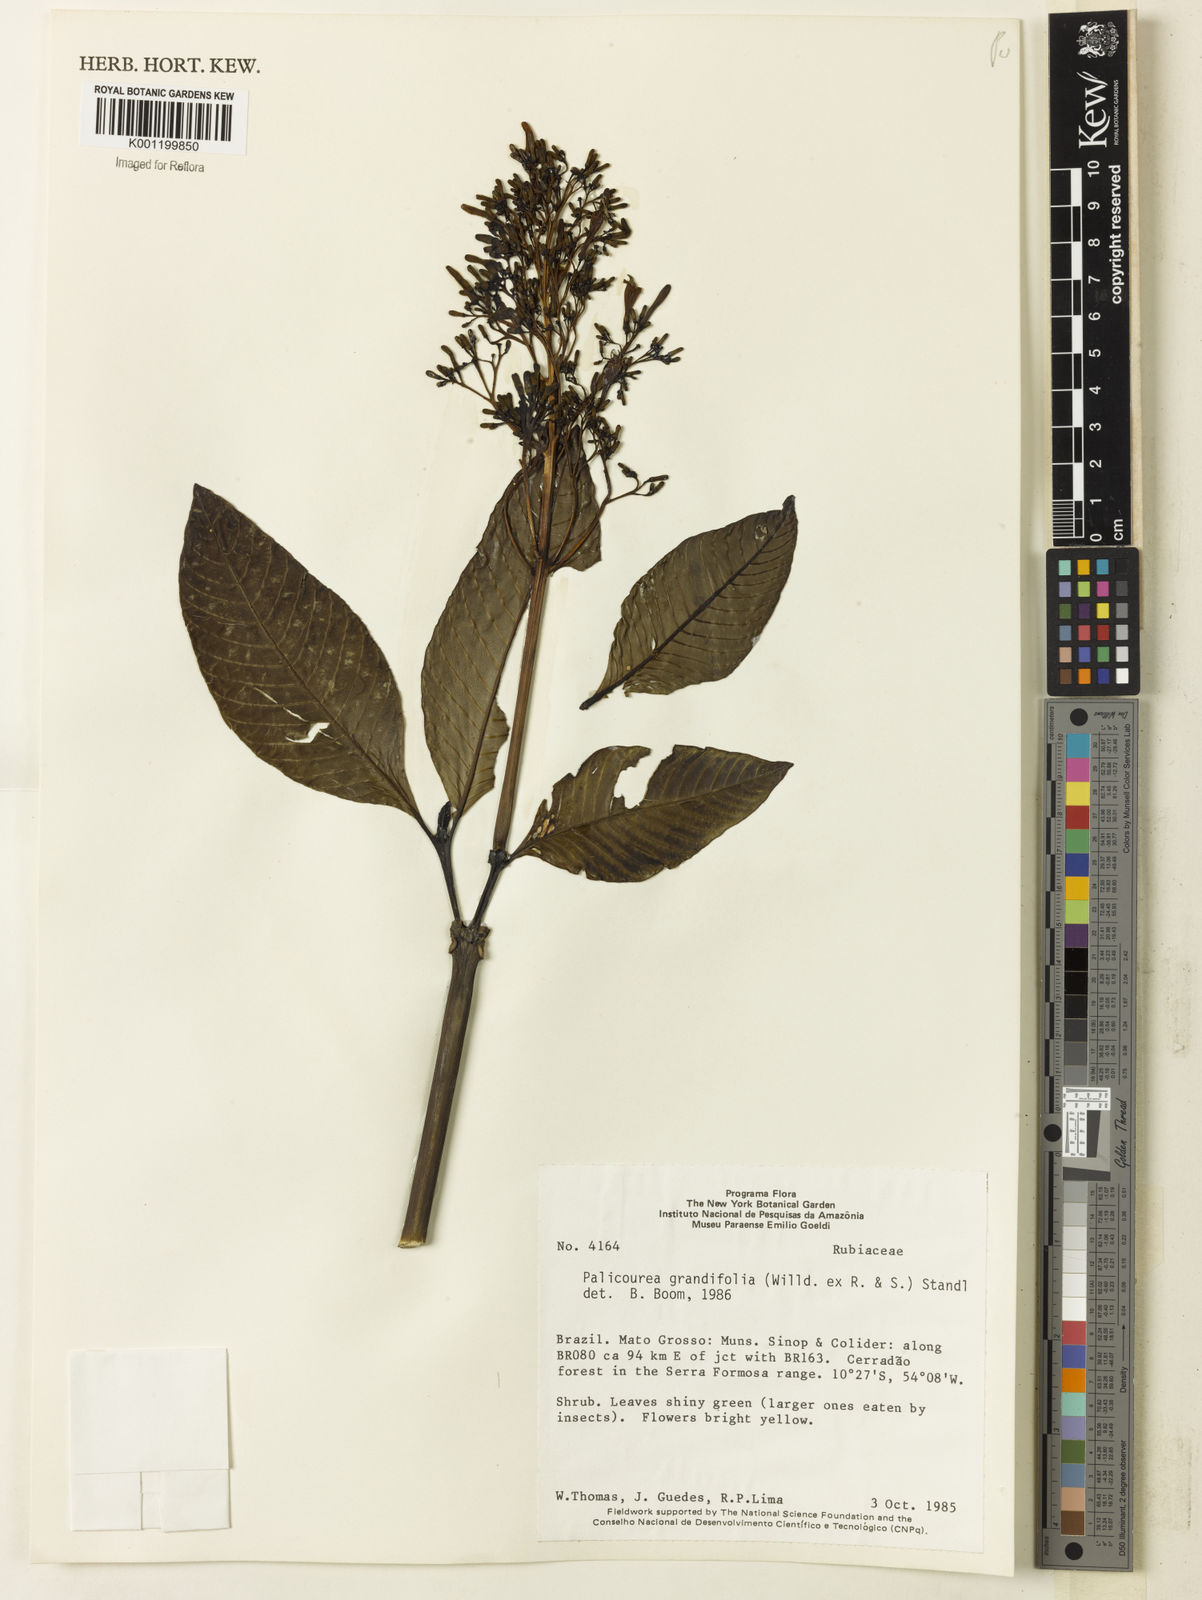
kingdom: Plantae
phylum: Tracheophyta
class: Magnoliopsida
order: Gentianales
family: Rubiaceae
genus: Palicourea
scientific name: Palicourea grandifolia
